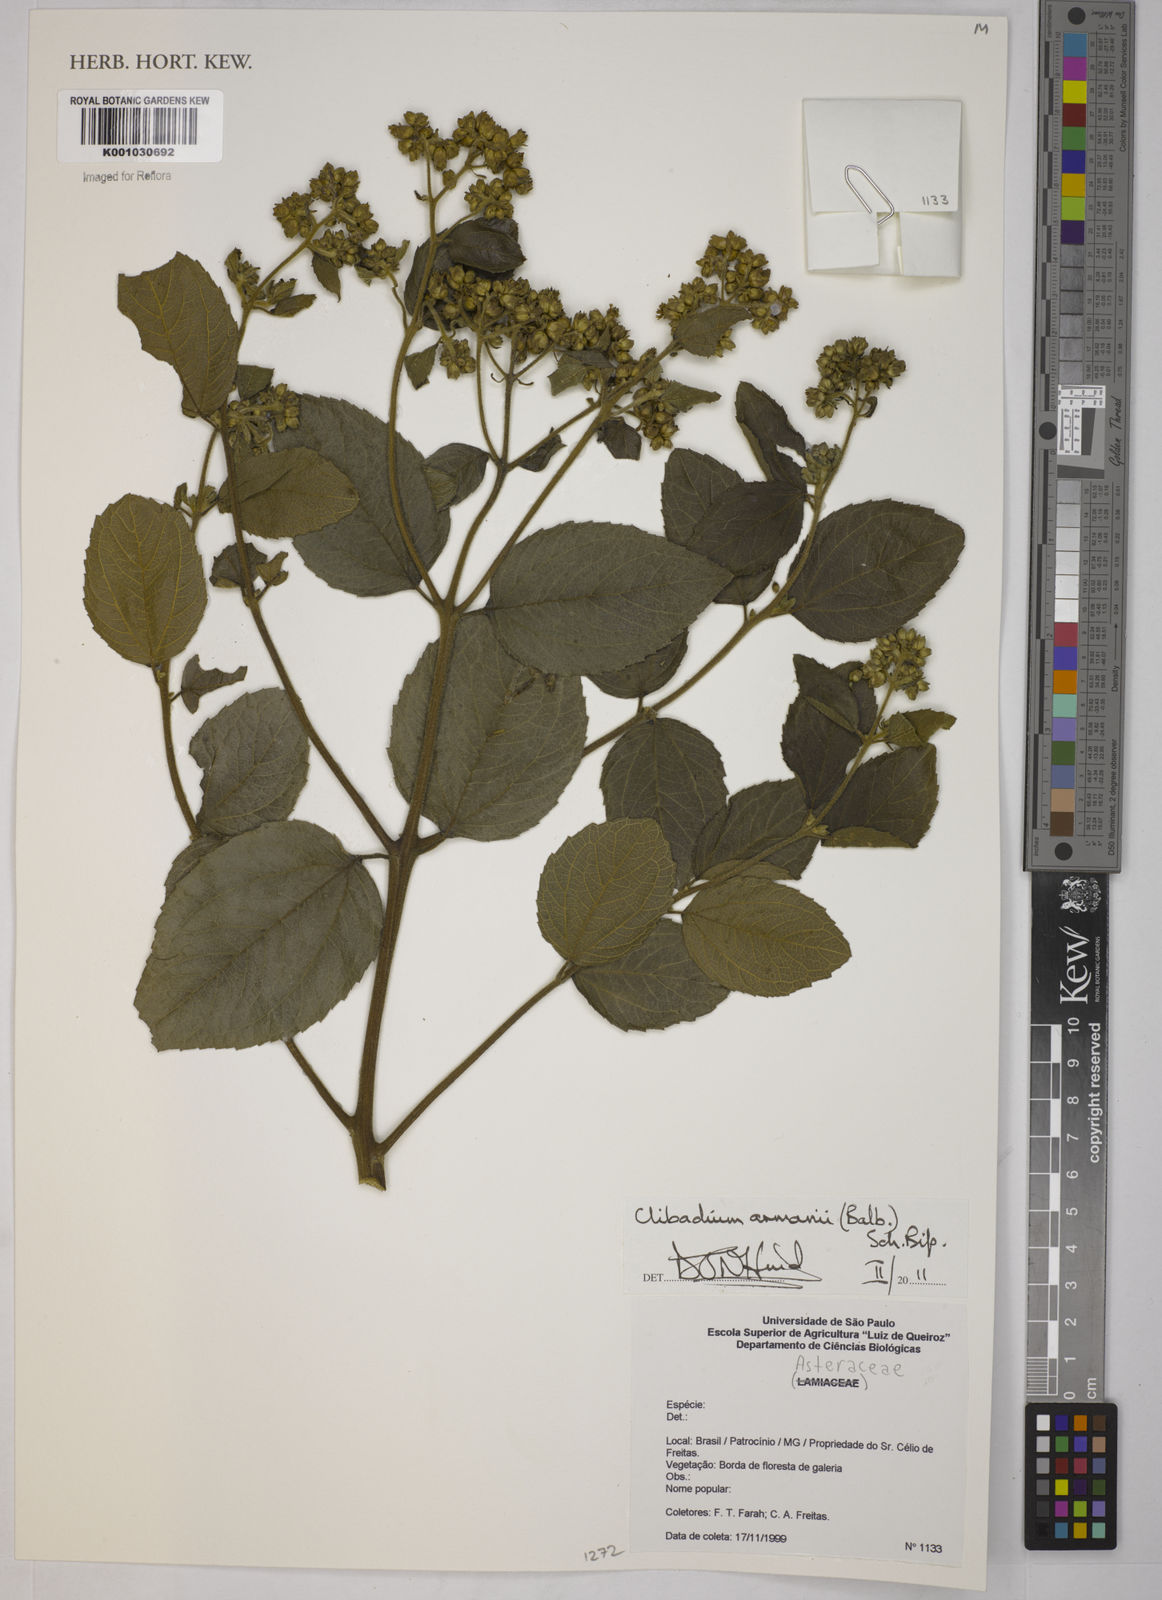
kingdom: Plantae
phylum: Tracheophyta
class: Magnoliopsida
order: Asterales
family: Asteraceae
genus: Clibadium
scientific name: Clibadium armanii
